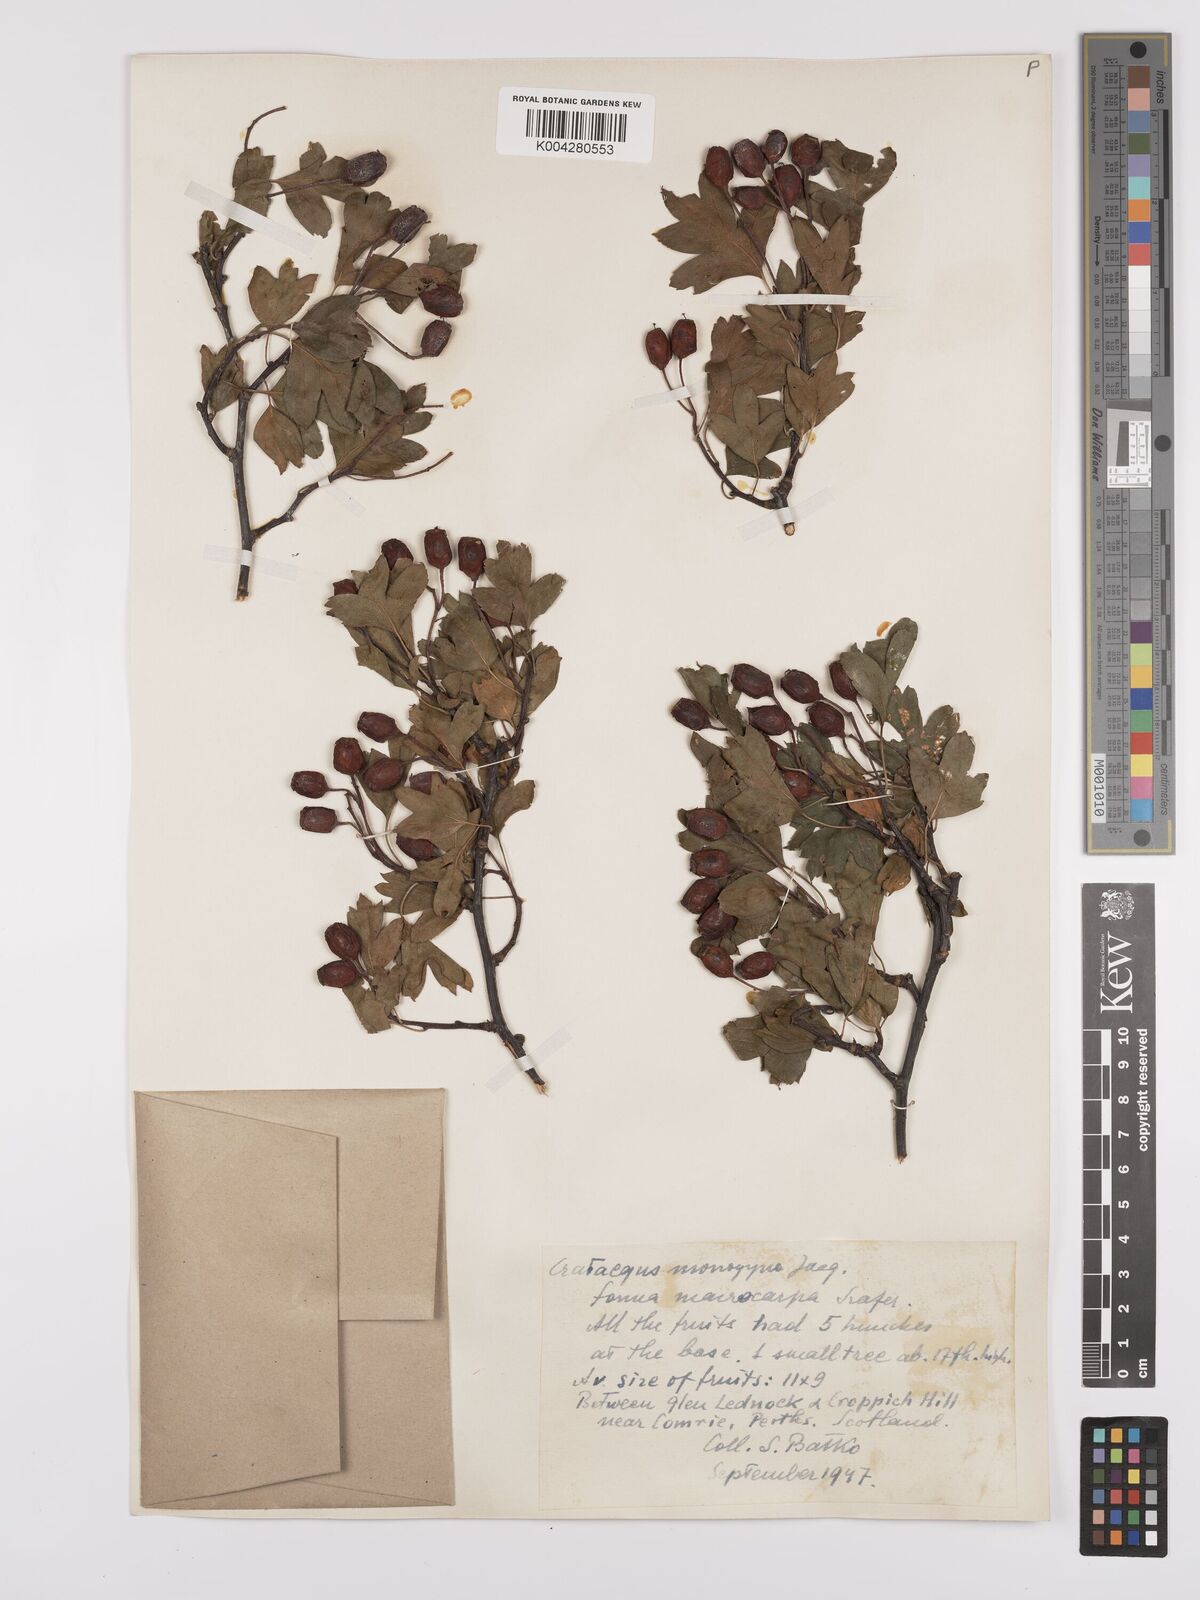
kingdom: Plantae
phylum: Tracheophyta
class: Magnoliopsida
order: Rosales
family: Rosaceae
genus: Crataegus
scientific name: Crataegus monogyna
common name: Hawthorn
